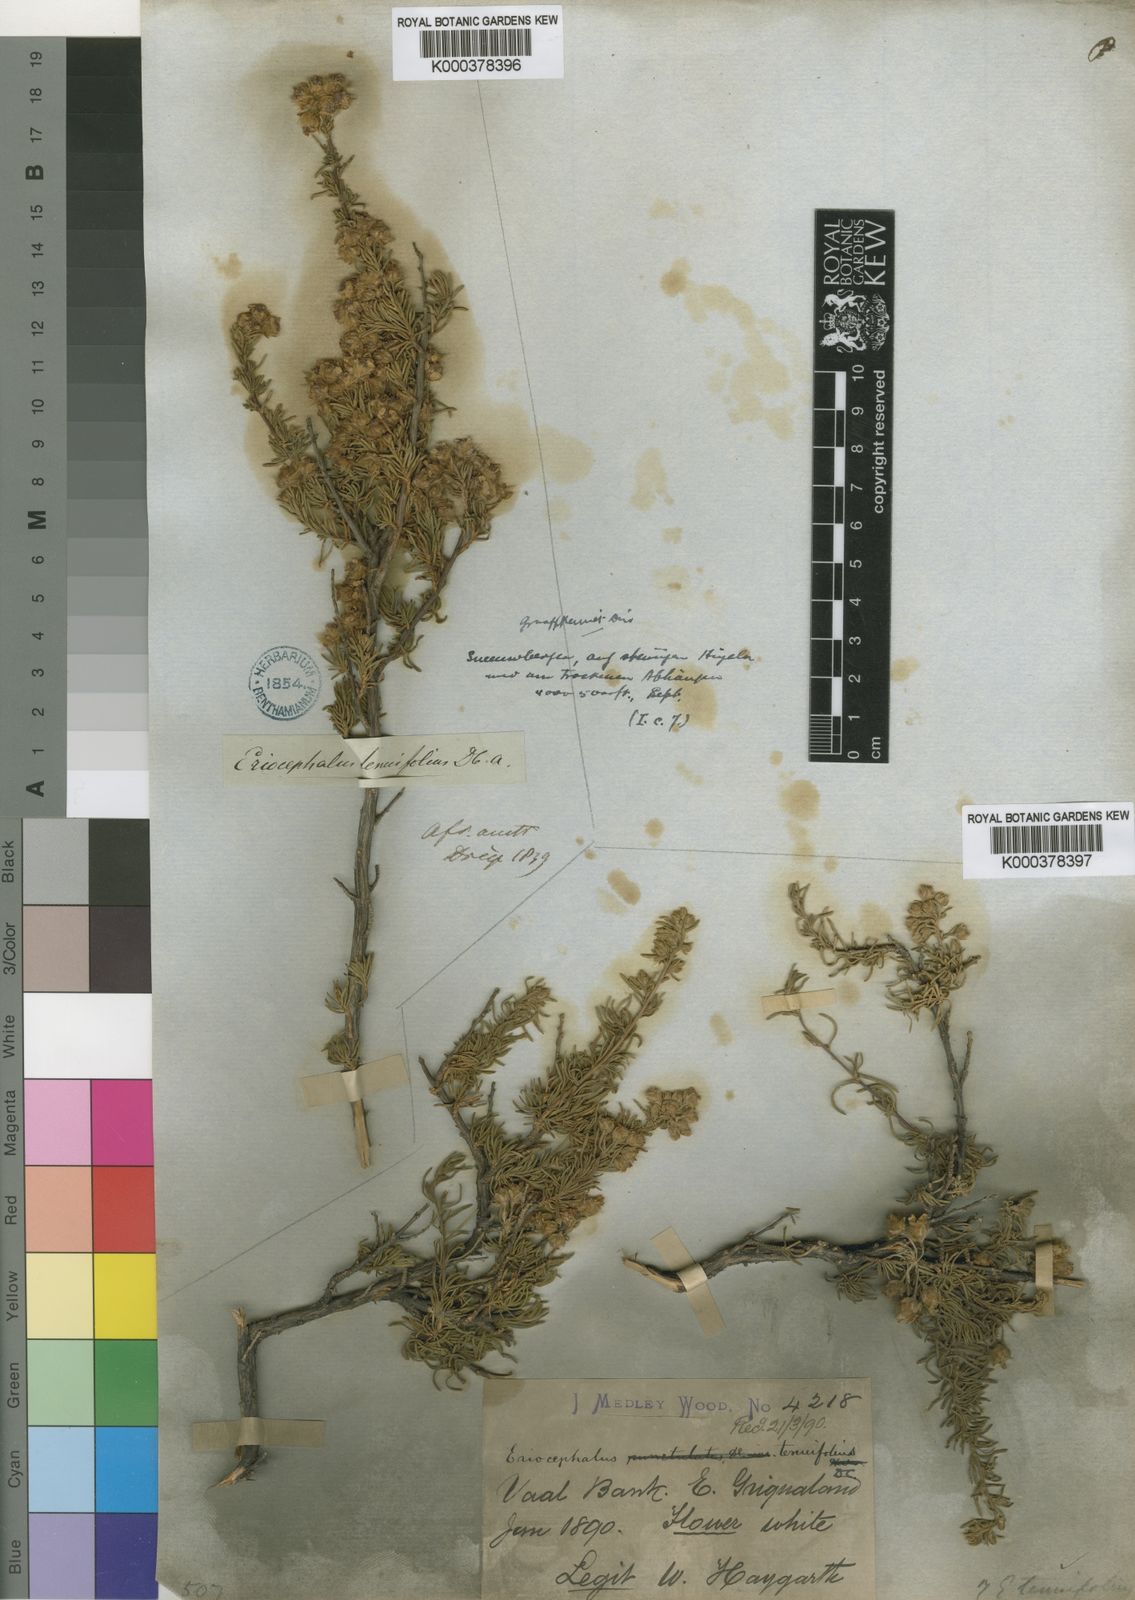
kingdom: Plantae
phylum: Tracheophyta
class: Magnoliopsida
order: Asterales
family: Asteraceae
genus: Eriocephalus
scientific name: Eriocephalus tenuifolius
